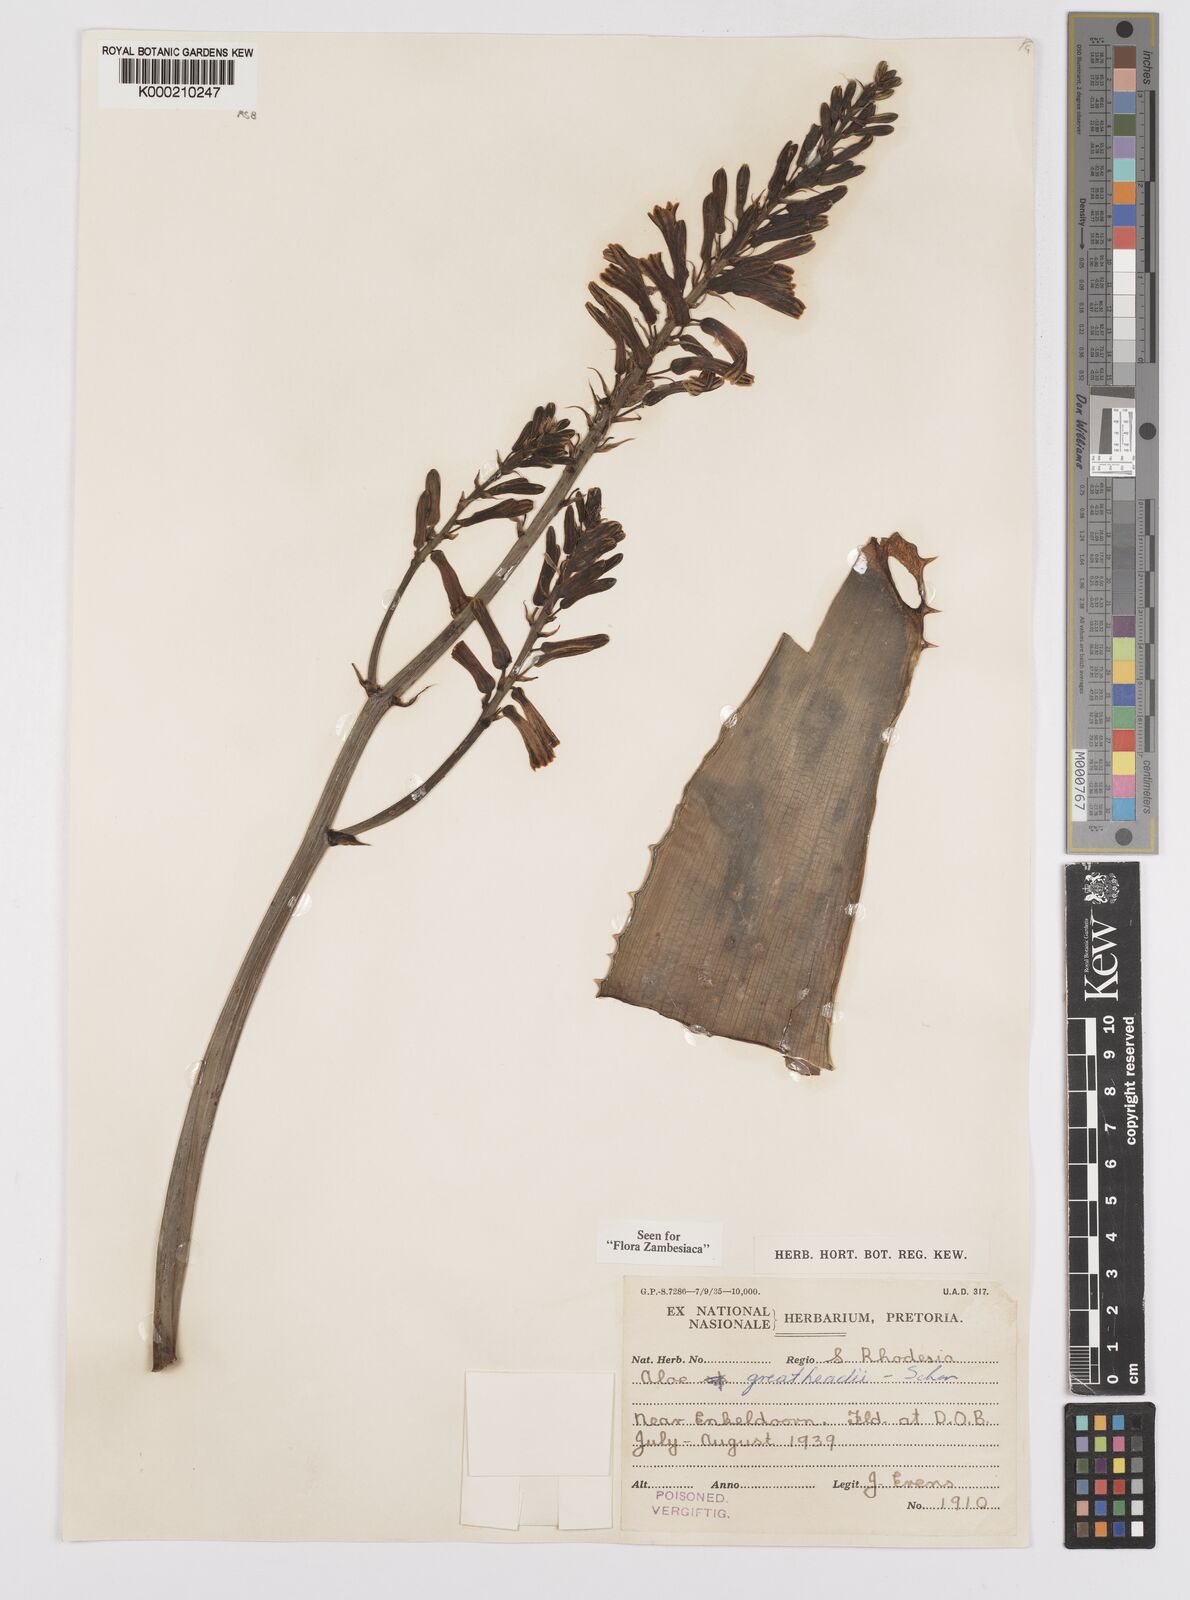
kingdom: Plantae
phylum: Tracheophyta
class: Liliopsida
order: Asparagales
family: Asphodelaceae
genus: Aloe
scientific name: Aloe greatheadii
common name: Greathead's aloe
